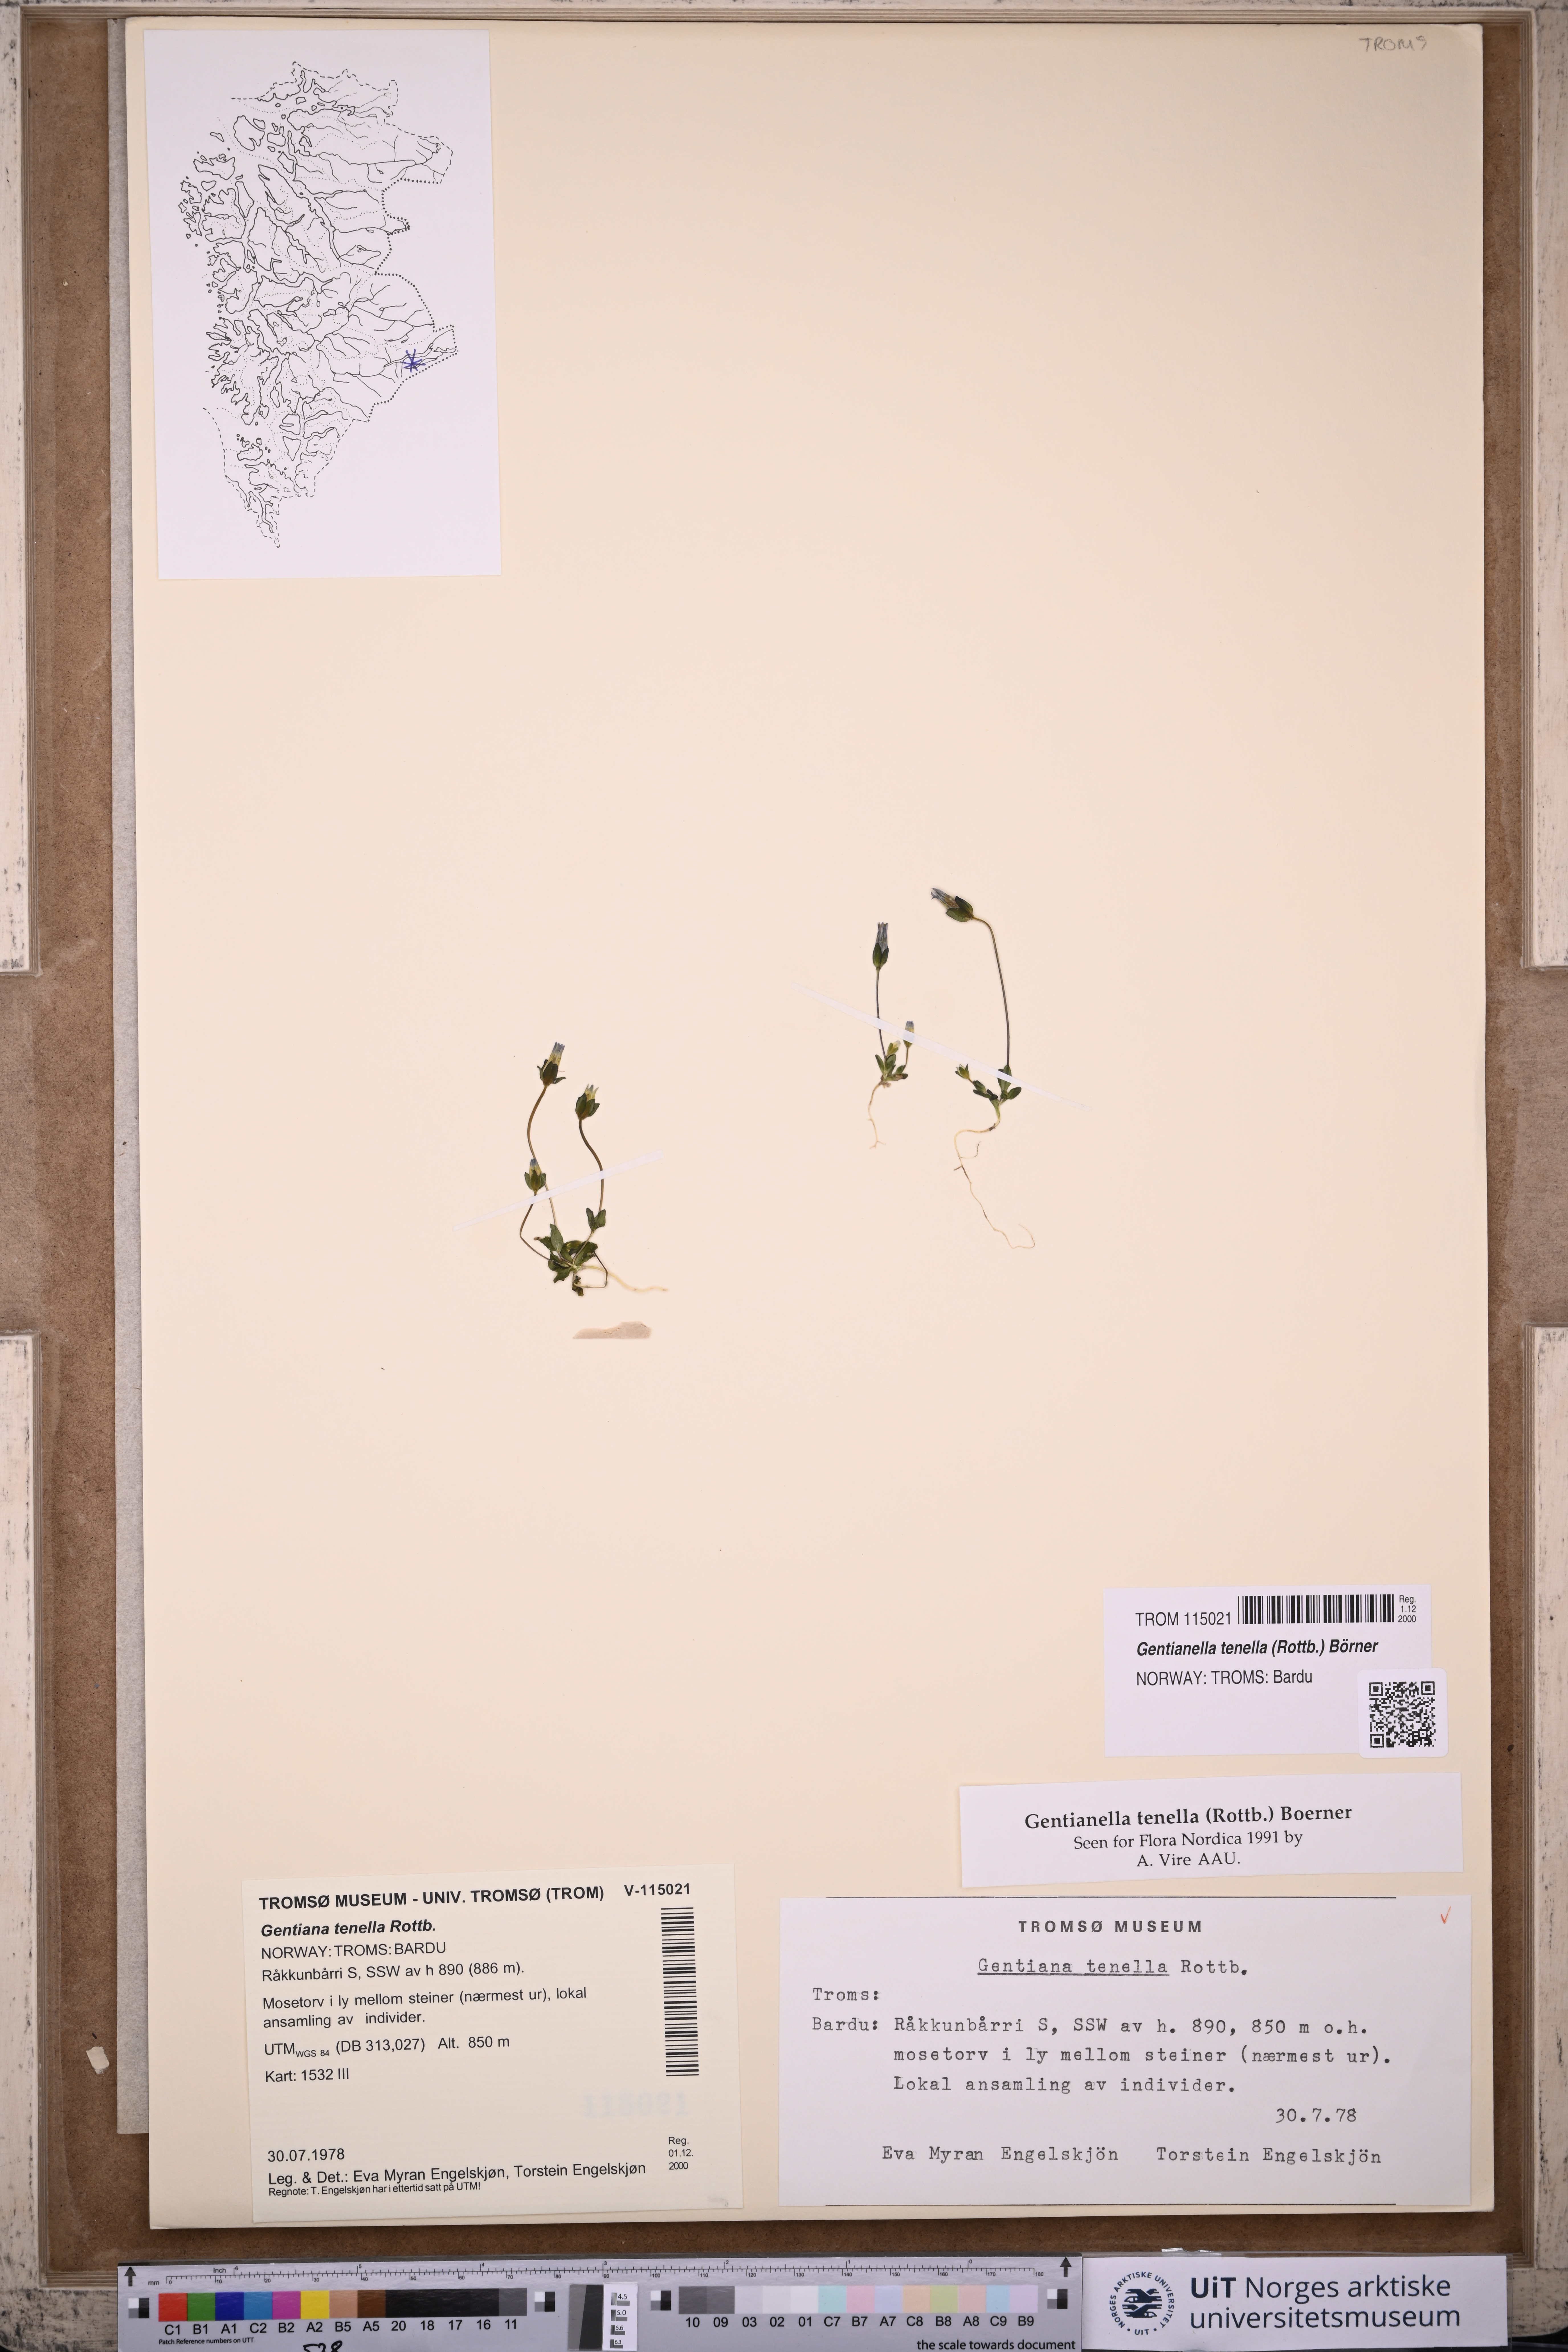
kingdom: Plantae
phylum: Tracheophyta
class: Magnoliopsida
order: Gentianales
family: Gentianaceae
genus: Comastoma
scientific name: Comastoma tenellum
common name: Dane's dwarf gentian
